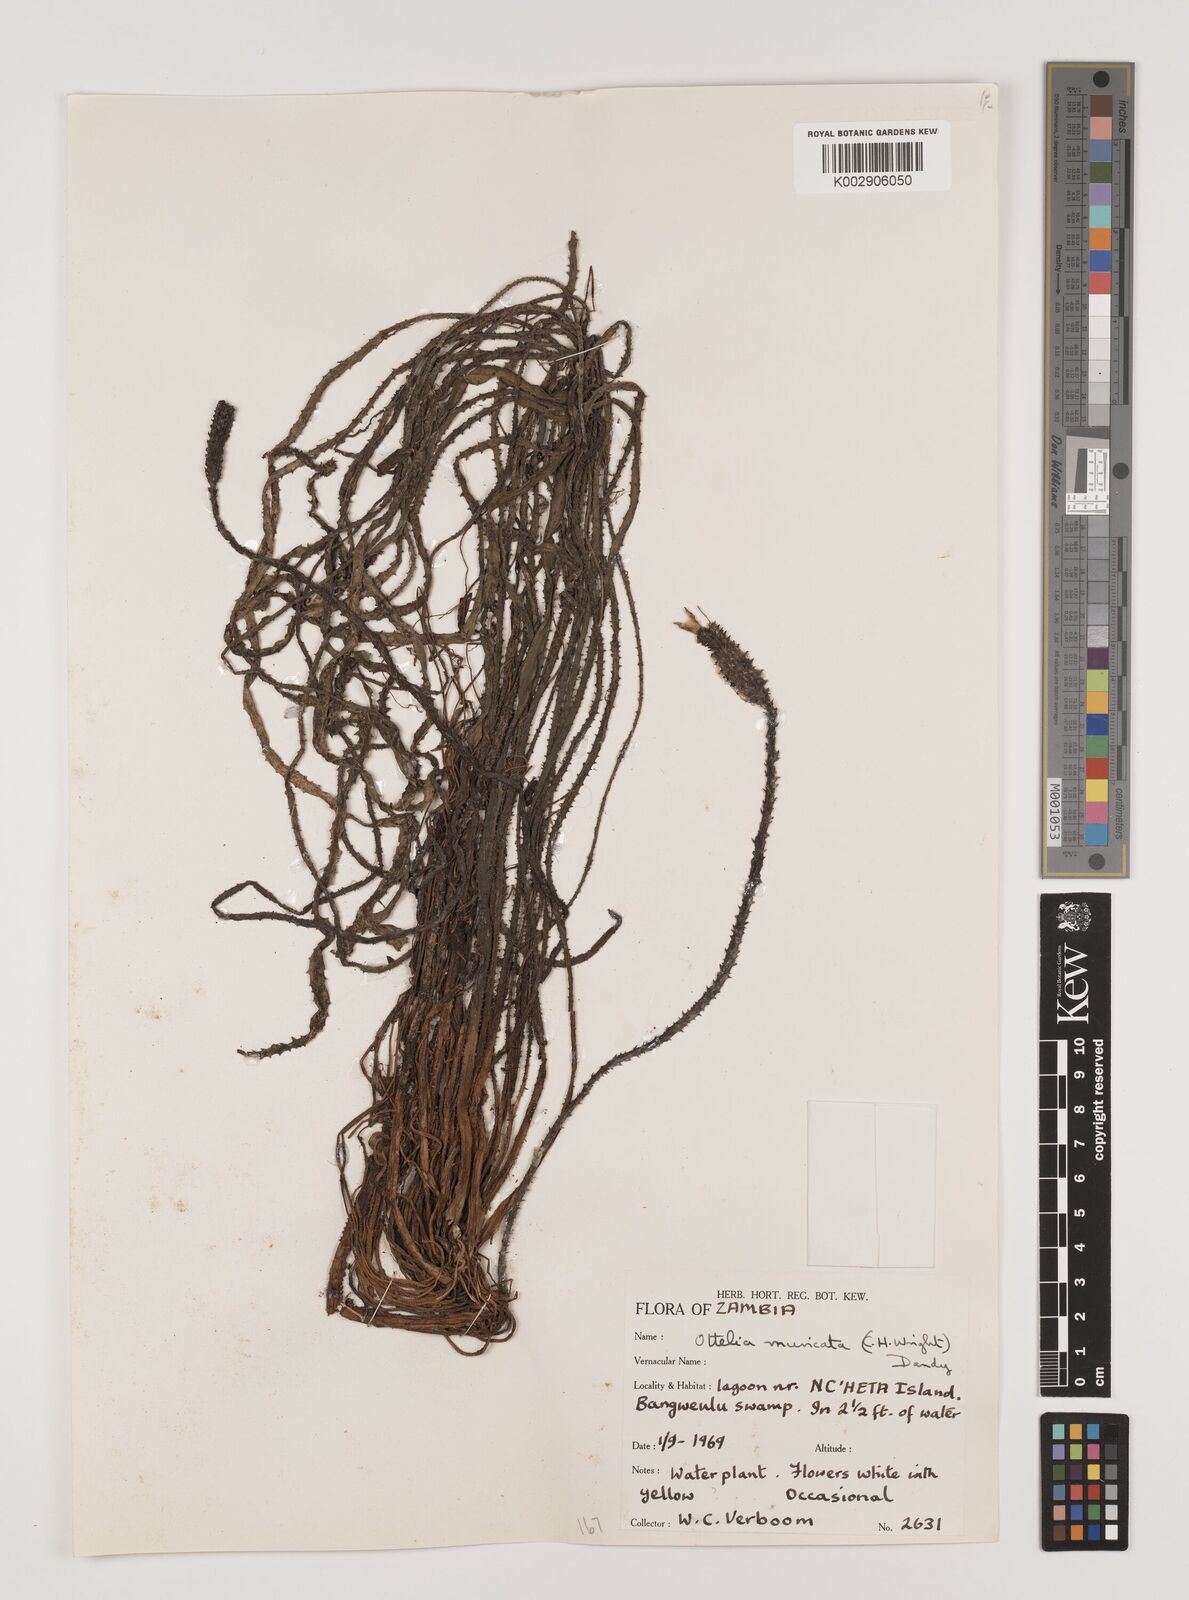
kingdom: Plantae
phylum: Tracheophyta
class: Liliopsida
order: Alismatales
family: Hydrocharitaceae
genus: Ottelia
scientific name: Ottelia muricata
